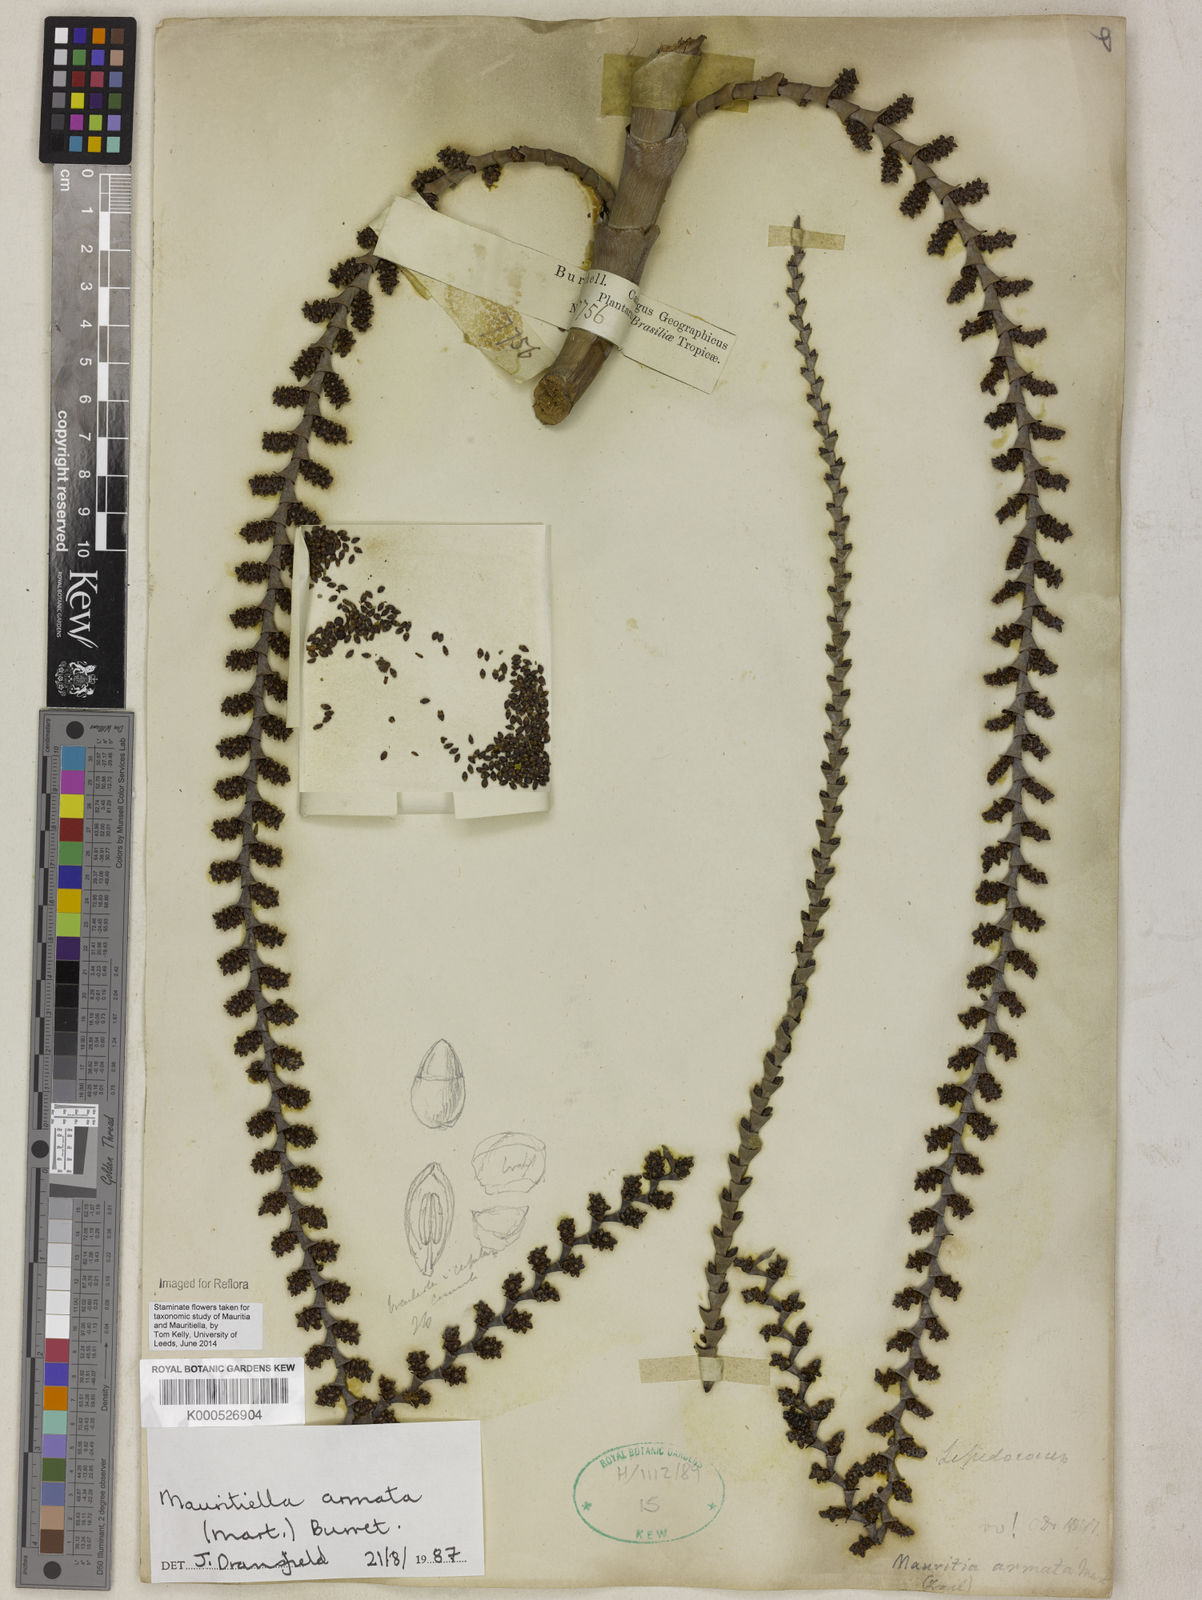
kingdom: Plantae
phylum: Tracheophyta
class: Liliopsida
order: Arecales
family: Arecaceae
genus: Mauritiella
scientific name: Mauritiella armata
